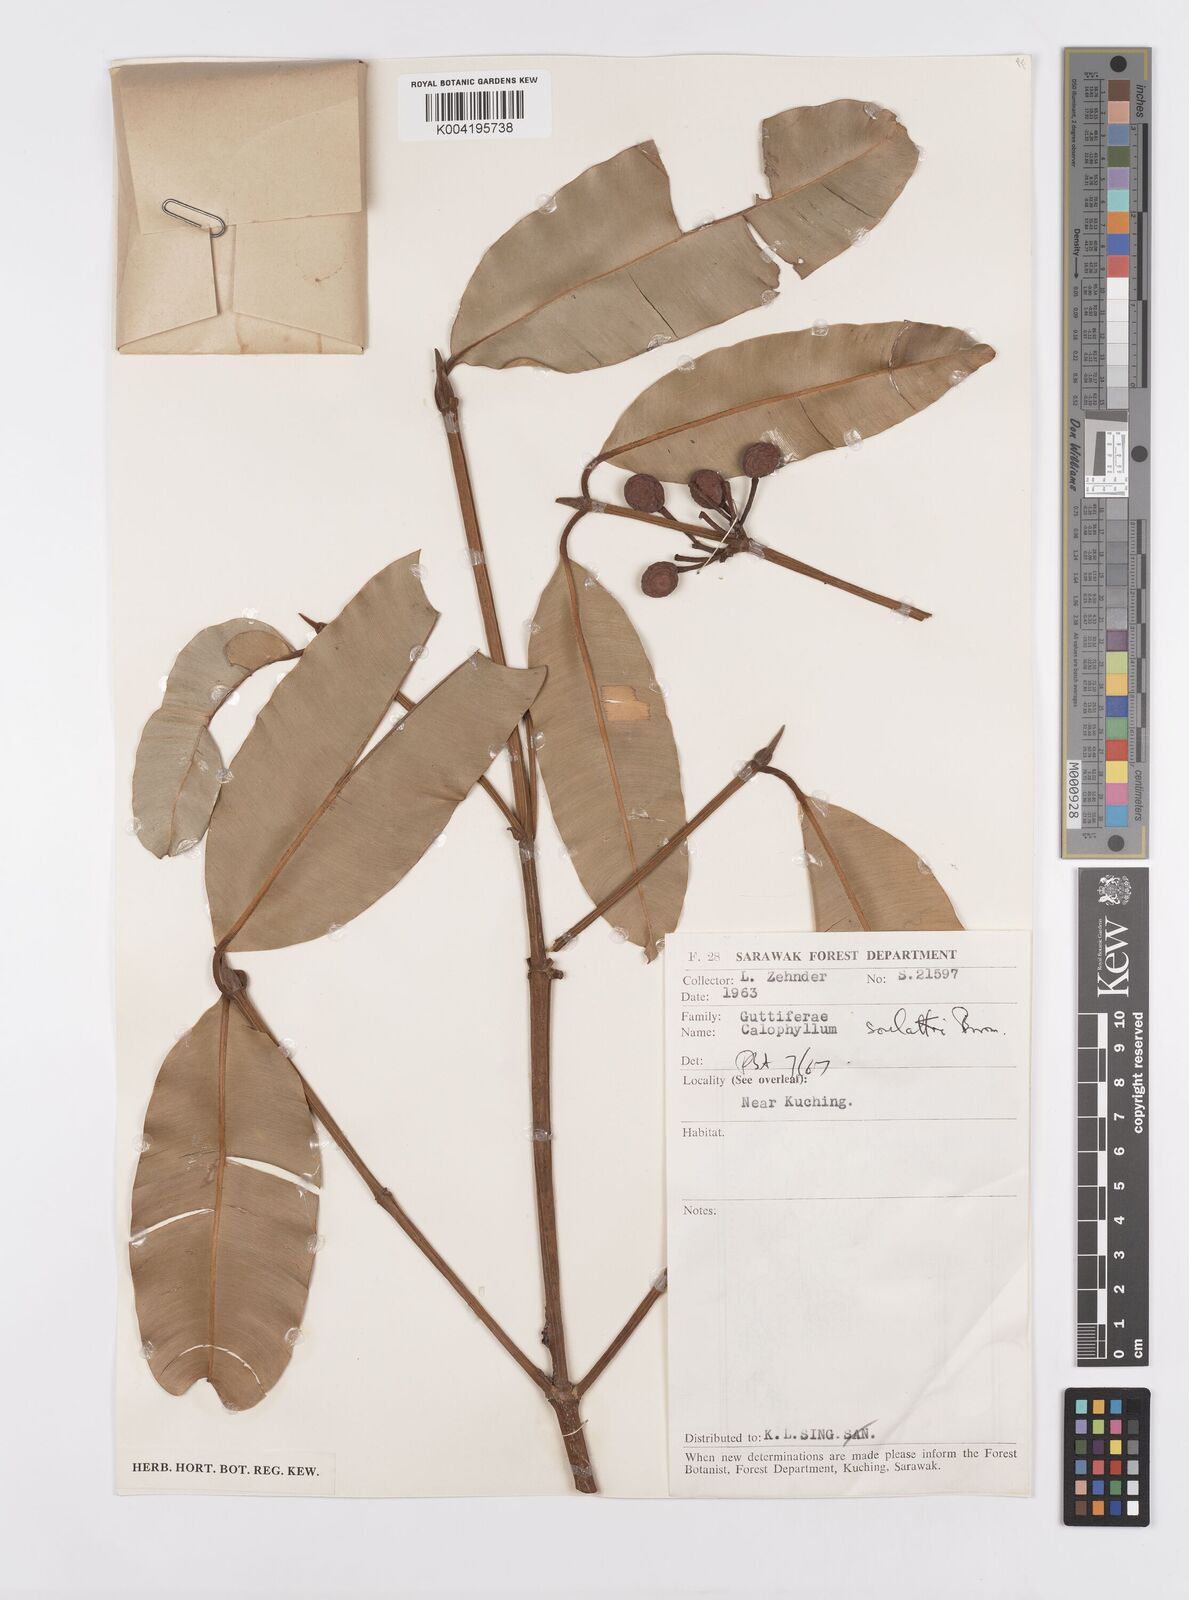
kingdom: Plantae
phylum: Tracheophyta
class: Magnoliopsida
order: Malpighiales
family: Calophyllaceae
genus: Calophyllum
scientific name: Calophyllum soulattri
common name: Bitangoor boonot
